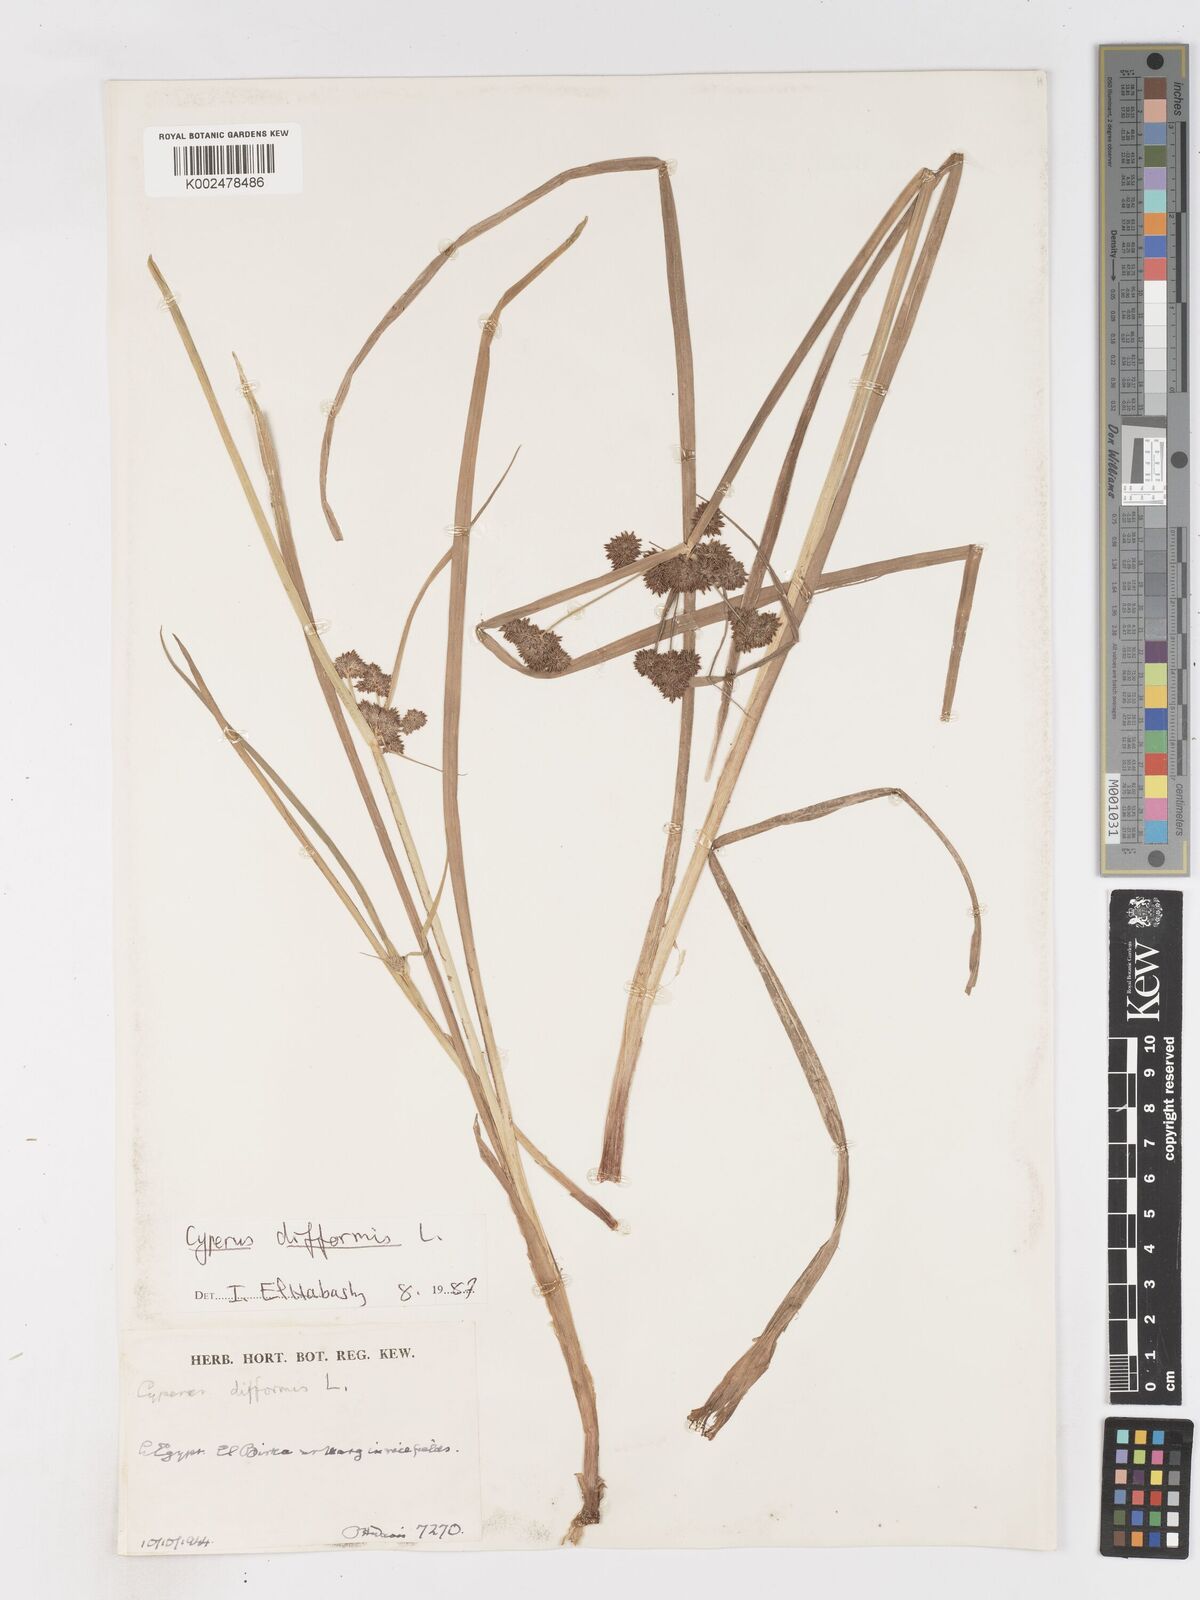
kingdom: Plantae
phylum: Tracheophyta
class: Liliopsida
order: Poales
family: Cyperaceae
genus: Cyperus
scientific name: Cyperus difformis
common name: Variable flatsedge
